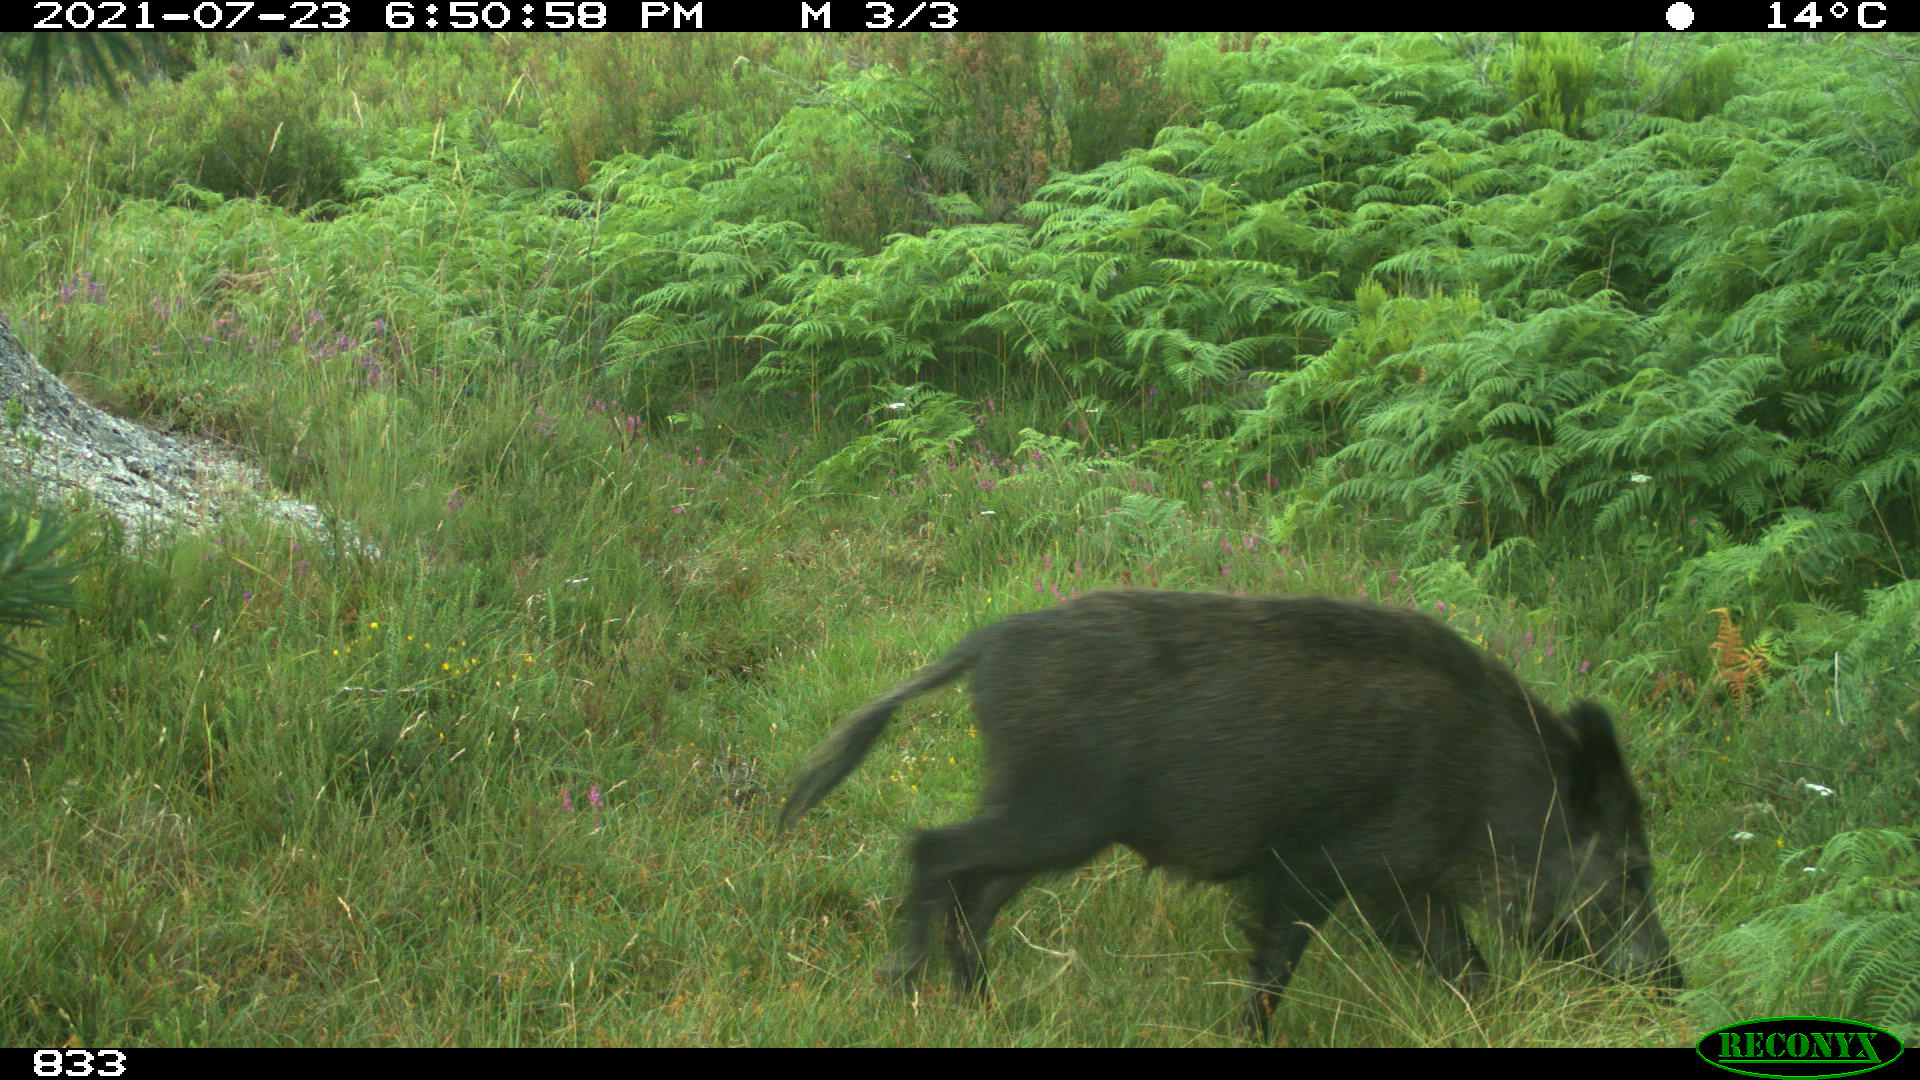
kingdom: Animalia
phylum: Chordata
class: Mammalia
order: Artiodactyla
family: Suidae
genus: Sus
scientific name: Sus scrofa
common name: Wild boar
